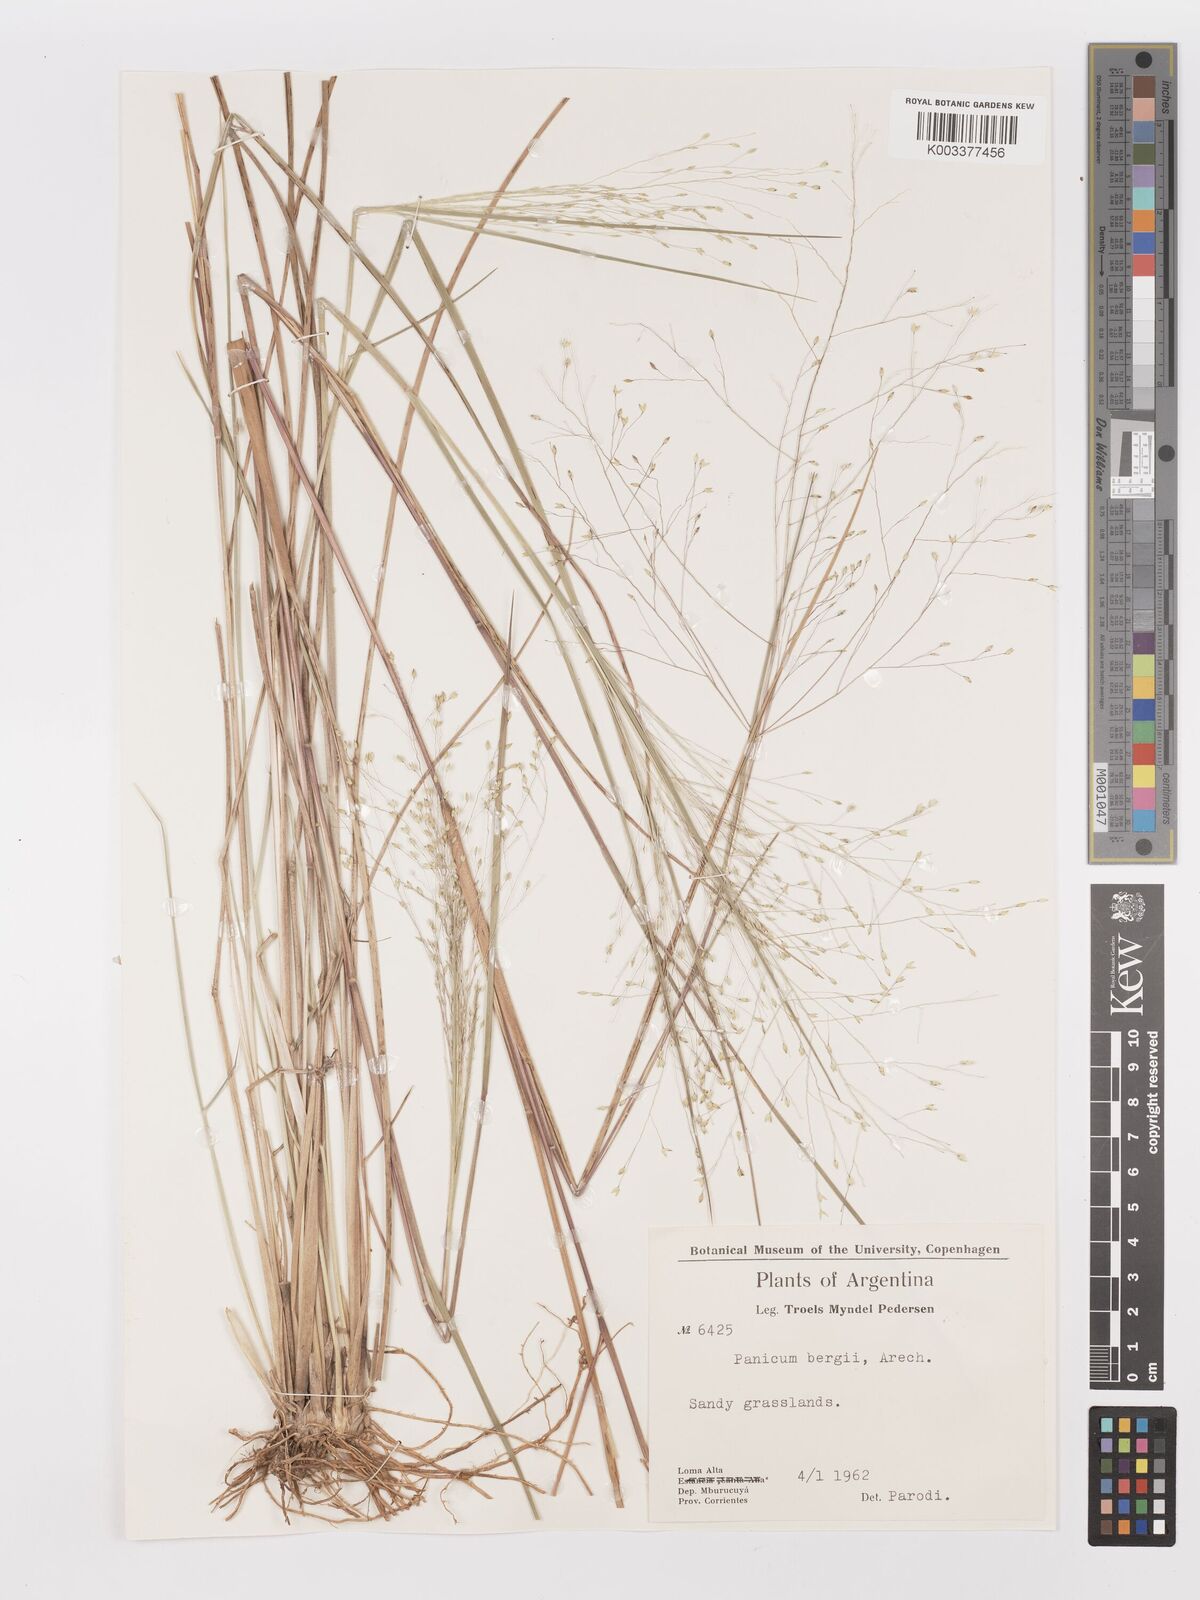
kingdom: Plantae
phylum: Tracheophyta
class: Liliopsida
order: Poales
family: Poaceae
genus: Panicum
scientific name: Panicum bergii
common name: Berg's panicgrass
